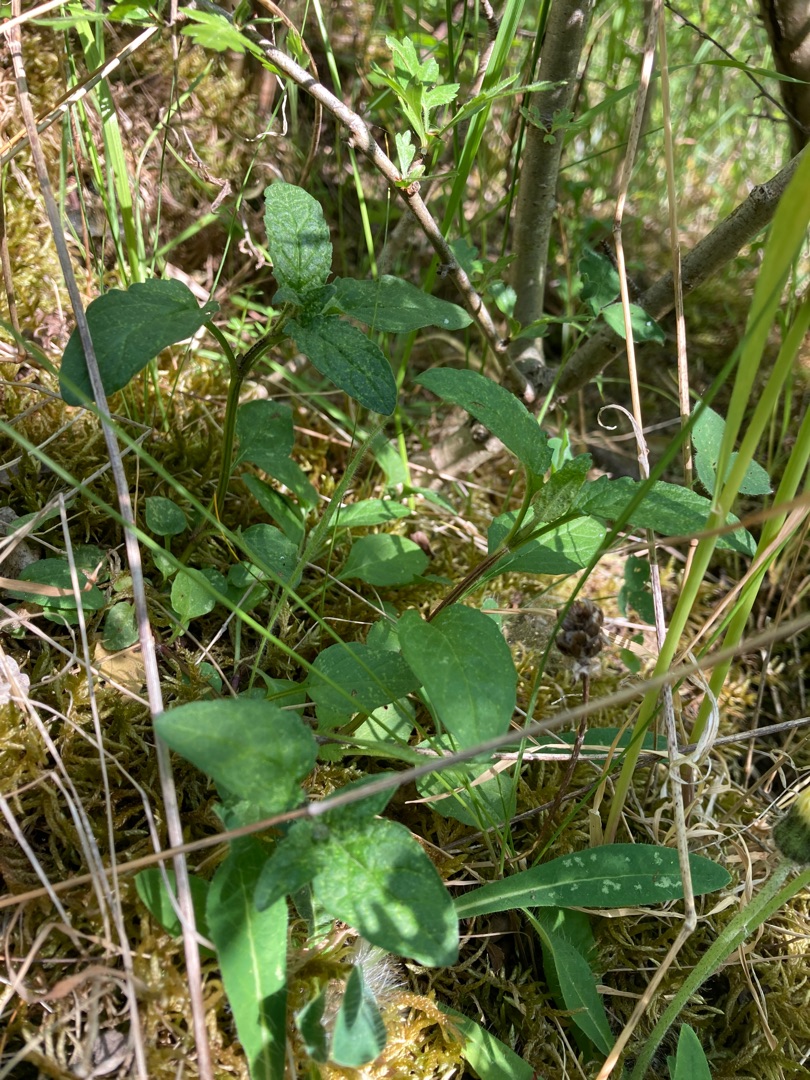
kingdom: Plantae
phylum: Tracheophyta
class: Magnoliopsida
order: Lamiales
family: Lamiaceae
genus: Prunella
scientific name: Prunella vulgaris
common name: Almindelig brunelle
